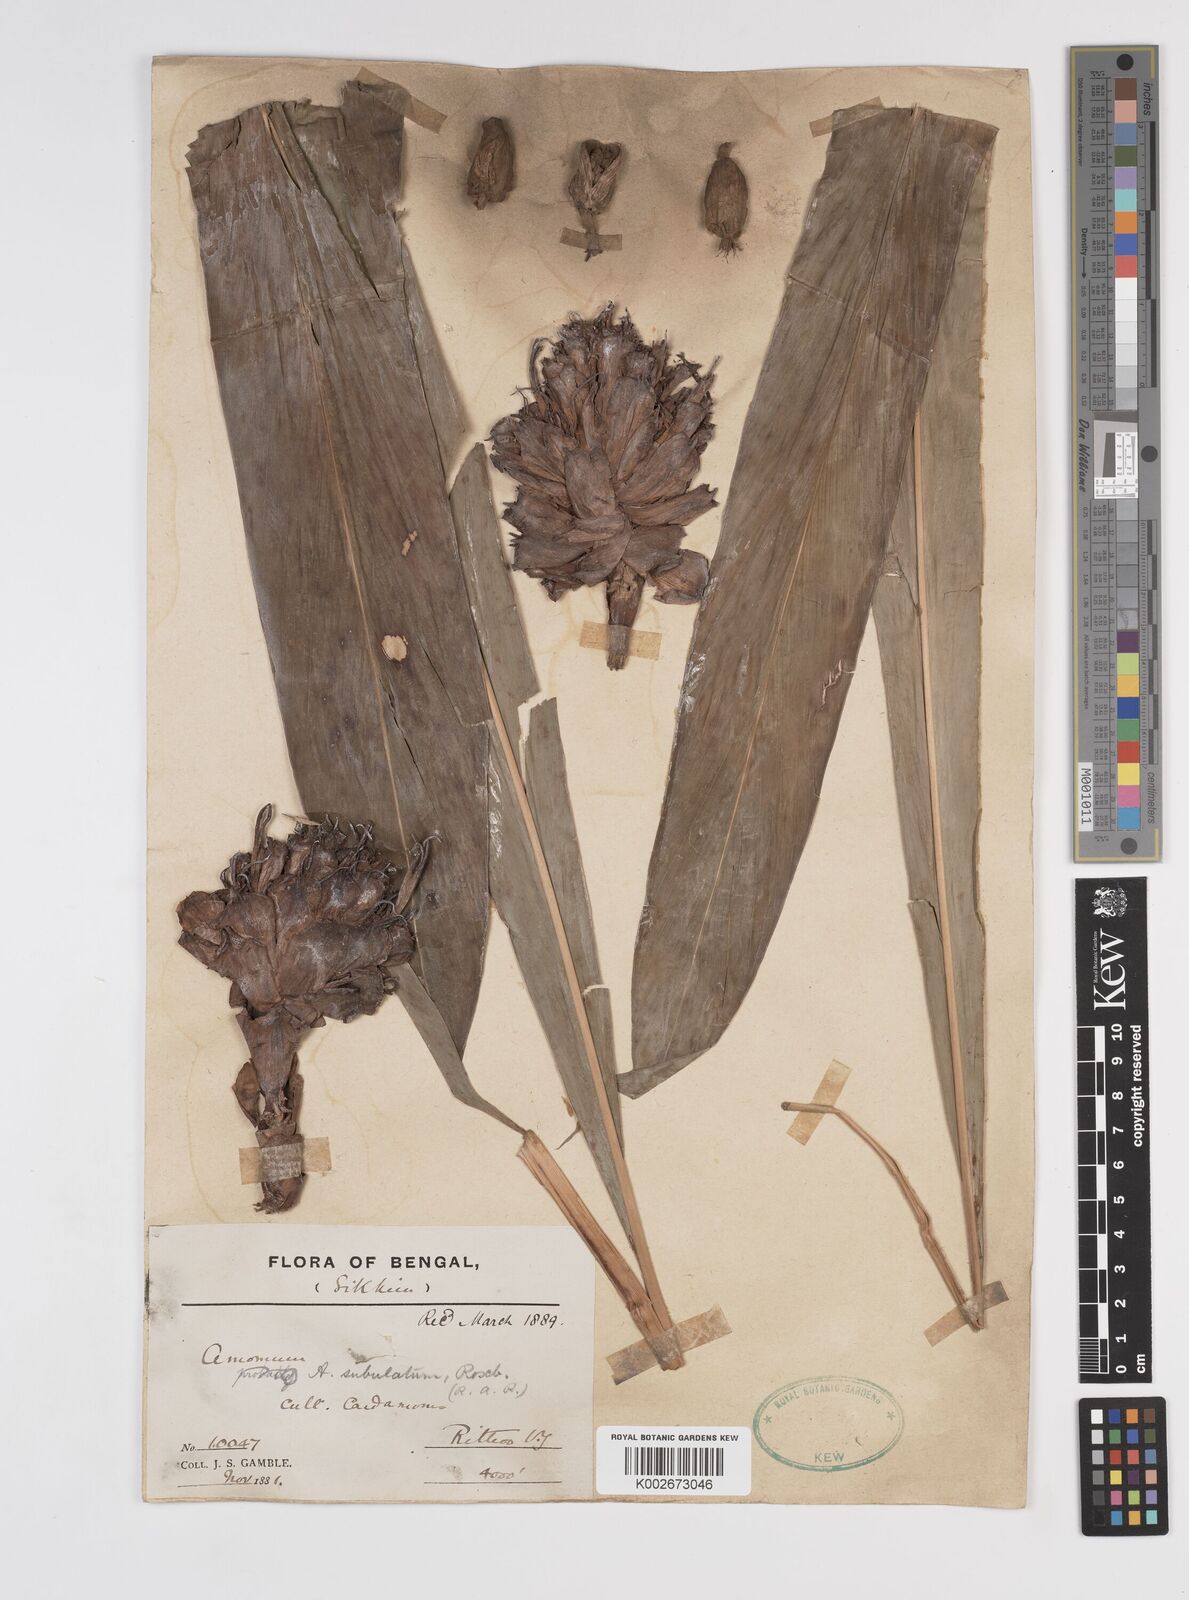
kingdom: Plantae
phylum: Tracheophyta
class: Liliopsida
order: Zingiberales
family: Zingiberaceae
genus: Amomum
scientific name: Amomum subulatum
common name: Black cardamom
